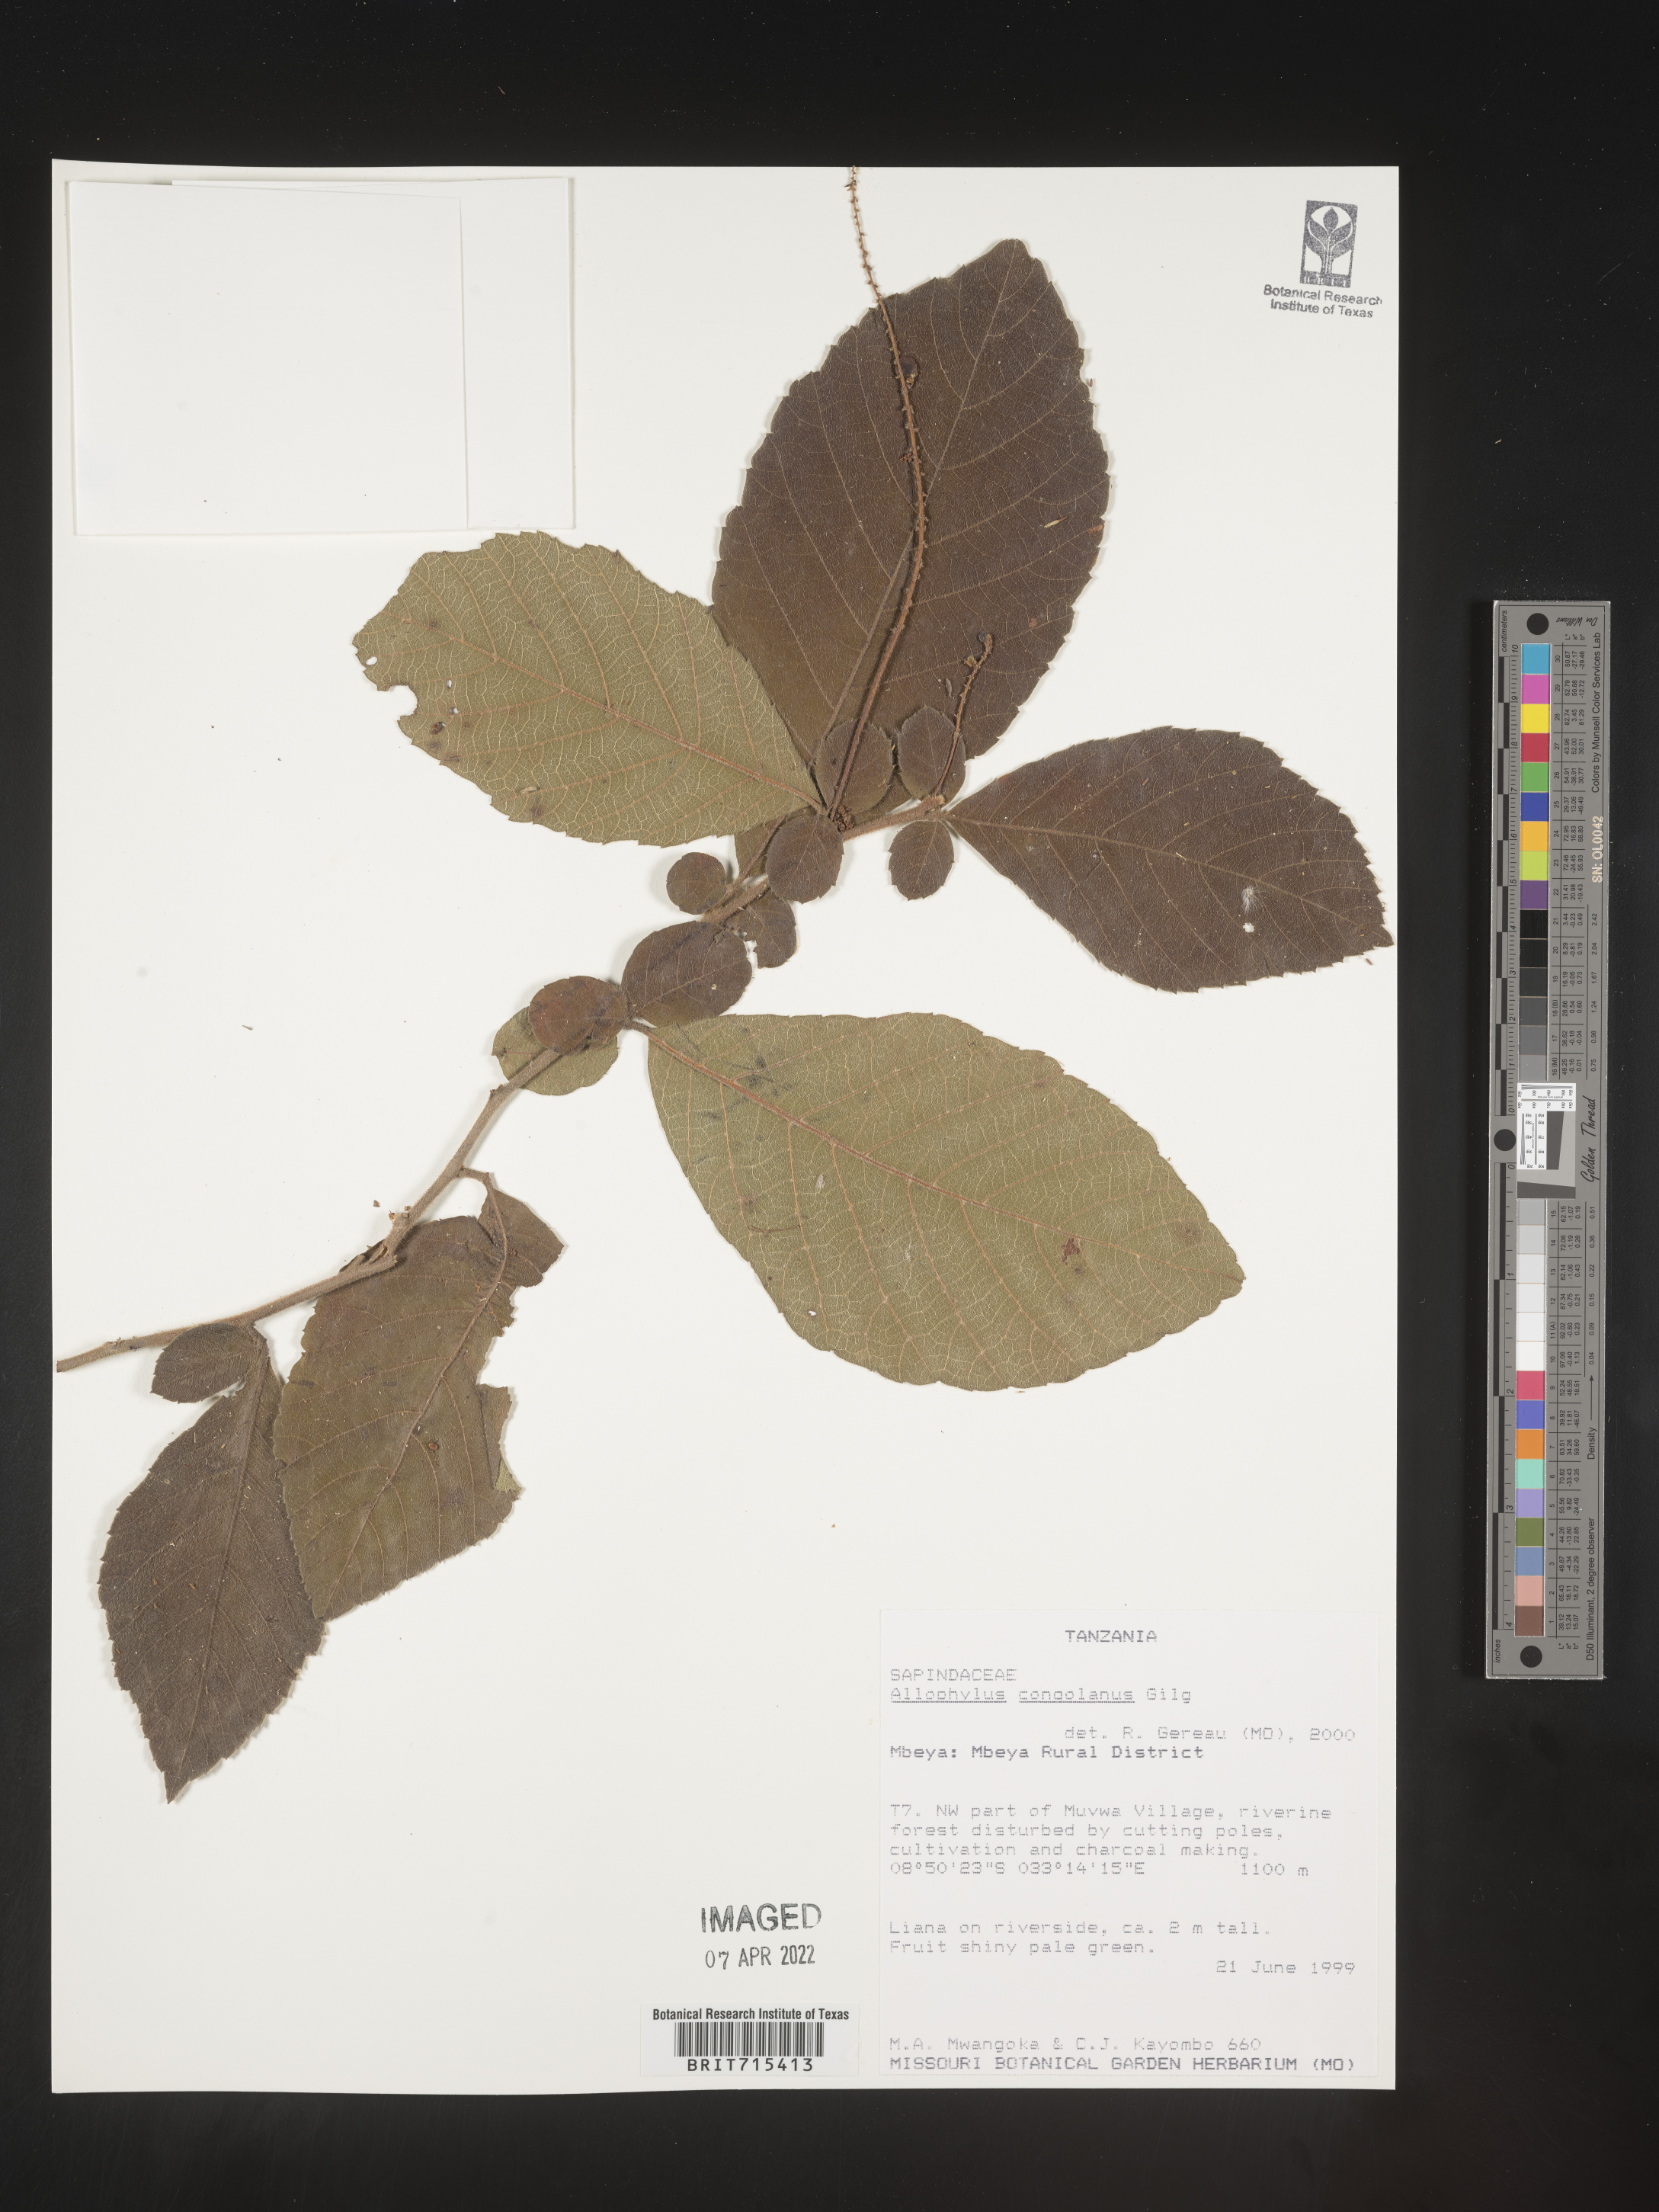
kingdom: Plantae
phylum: Tracheophyta
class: Magnoliopsida
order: Sapindales
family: Sapindaceae
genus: Allophylus
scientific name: Allophylus
